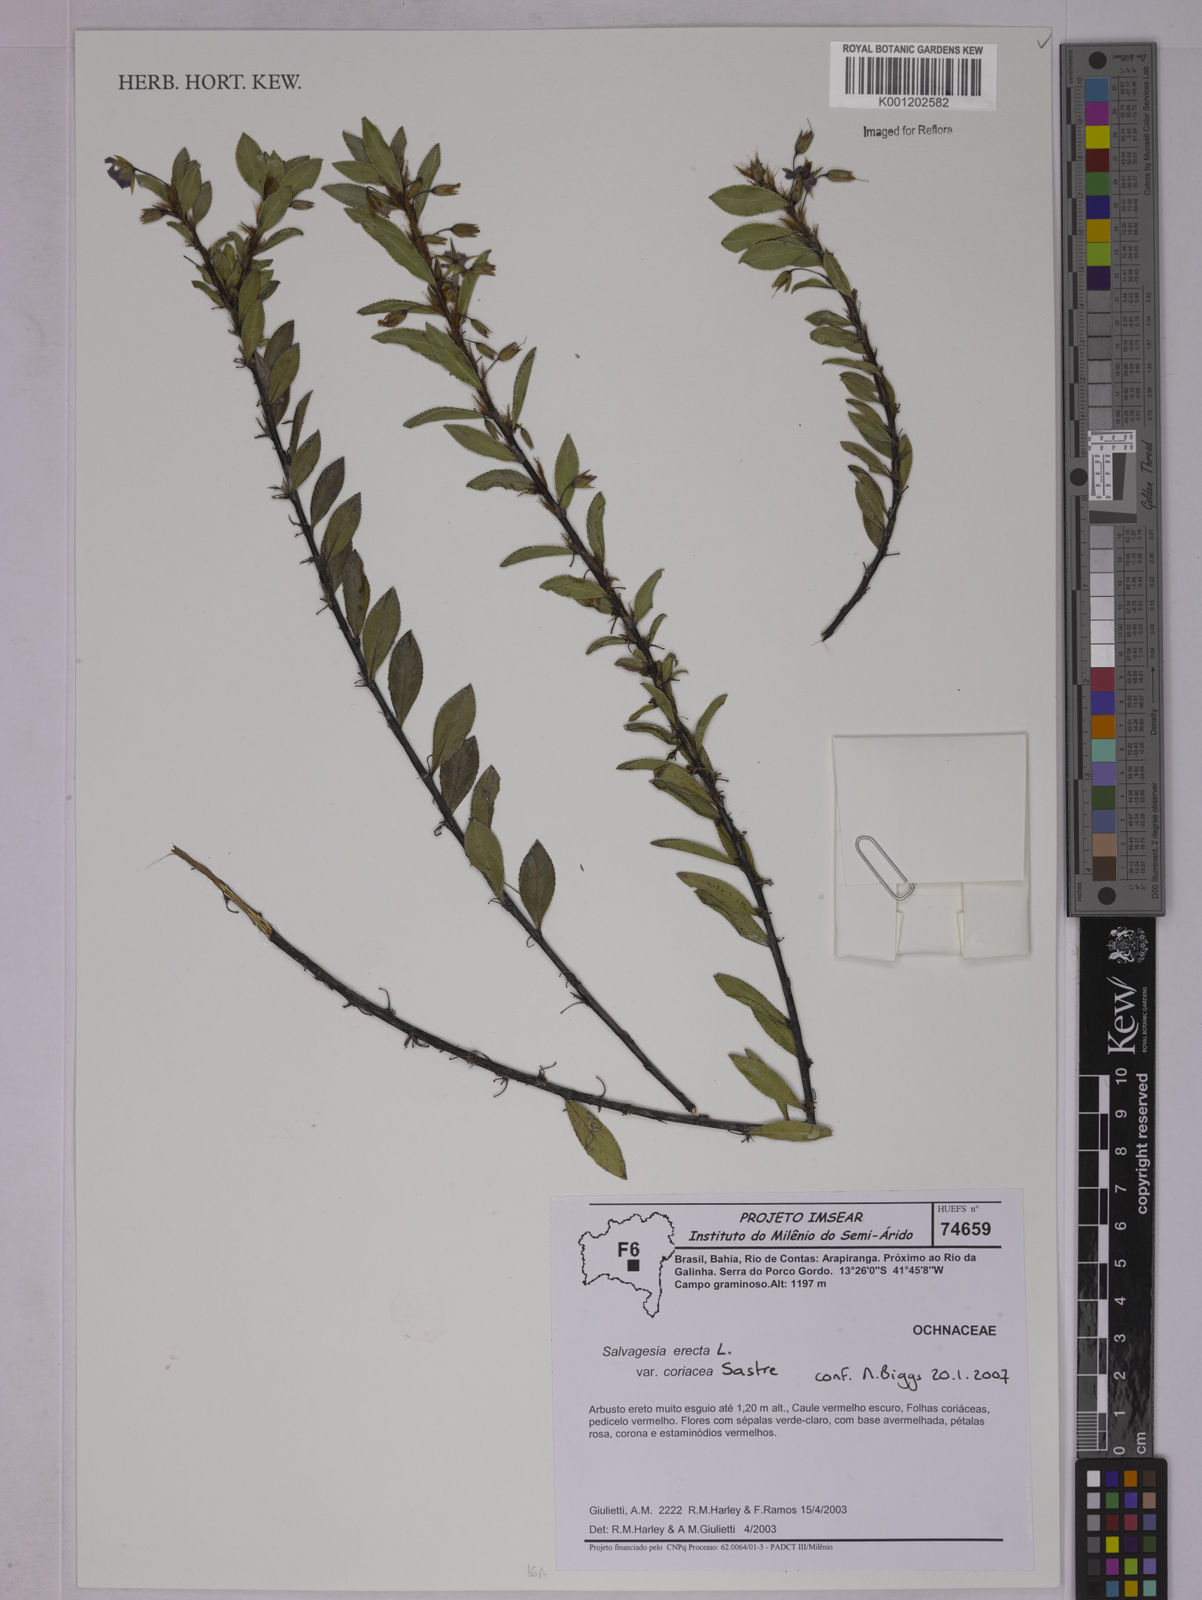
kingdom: Plantae
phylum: Tracheophyta
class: Magnoliopsida
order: Malpighiales
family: Ochnaceae
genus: Sauvagesia
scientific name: Sauvagesia erecta
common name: Creole tea
